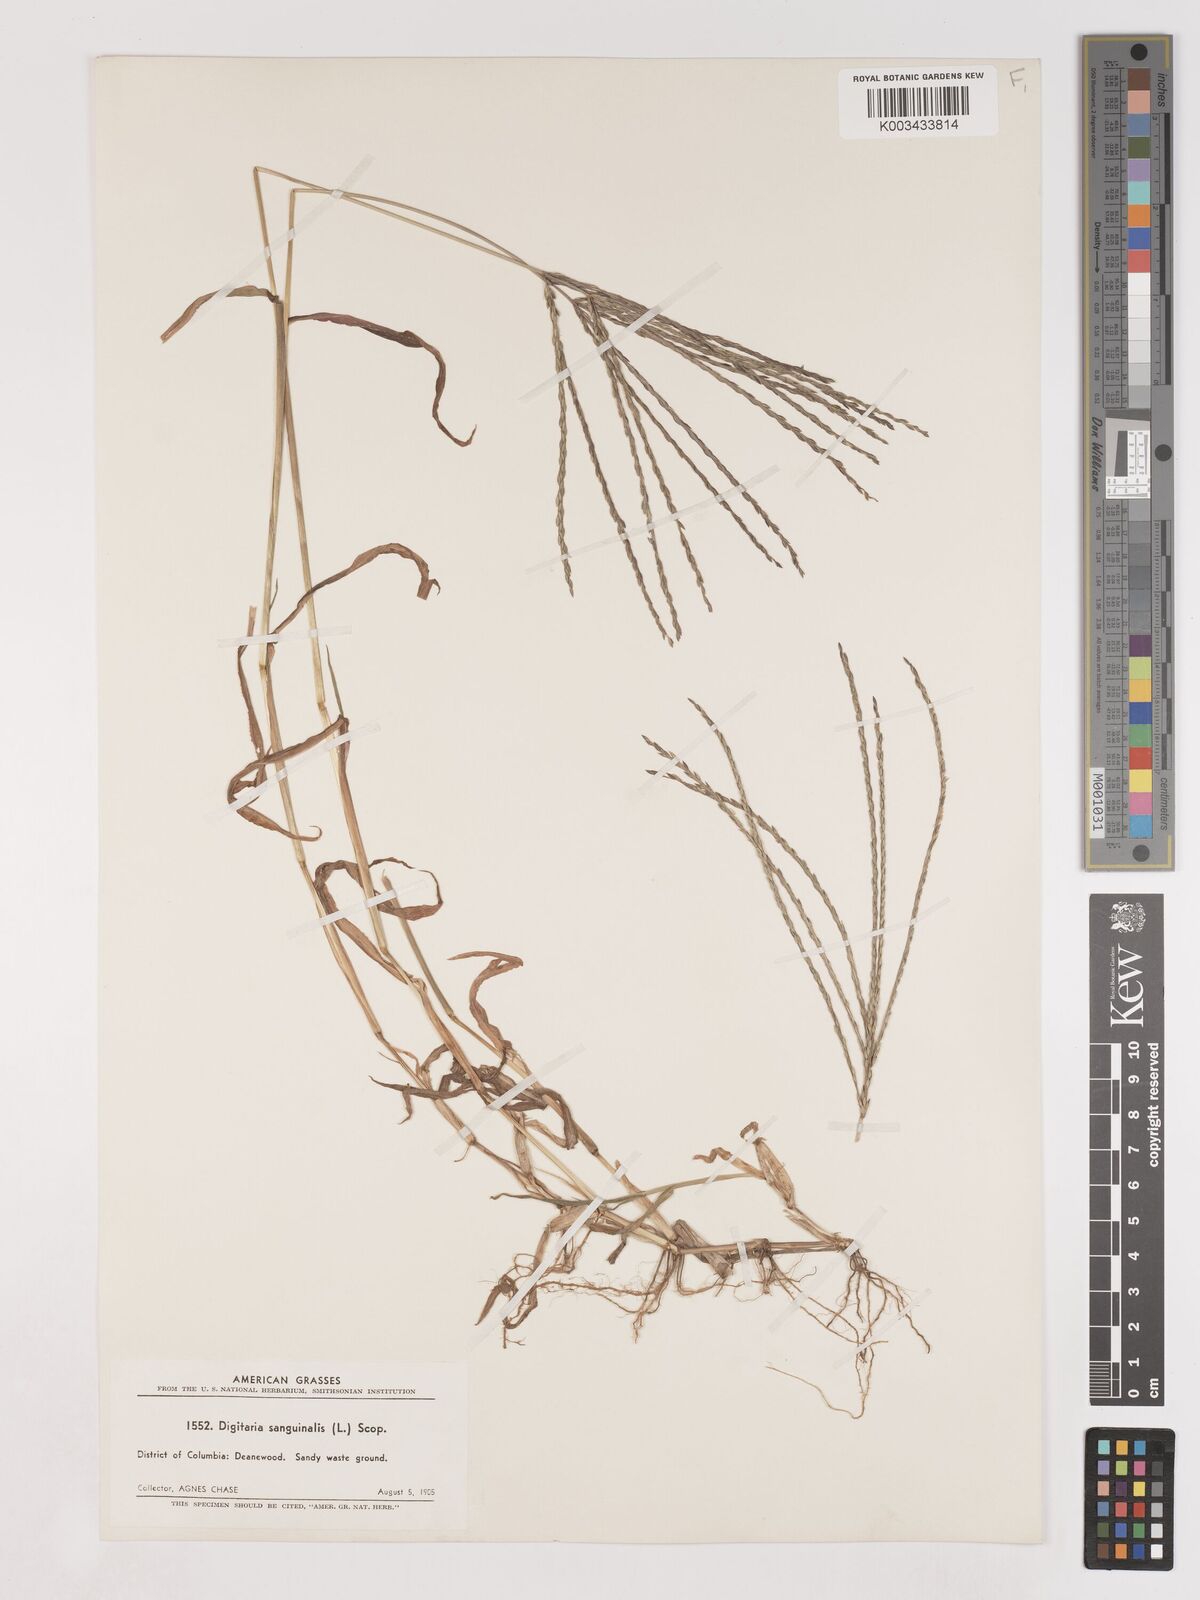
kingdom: Plantae
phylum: Tracheophyta
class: Liliopsida
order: Poales
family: Poaceae
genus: Digitaria
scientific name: Digitaria sanguinalis
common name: Hairy crabgrass
